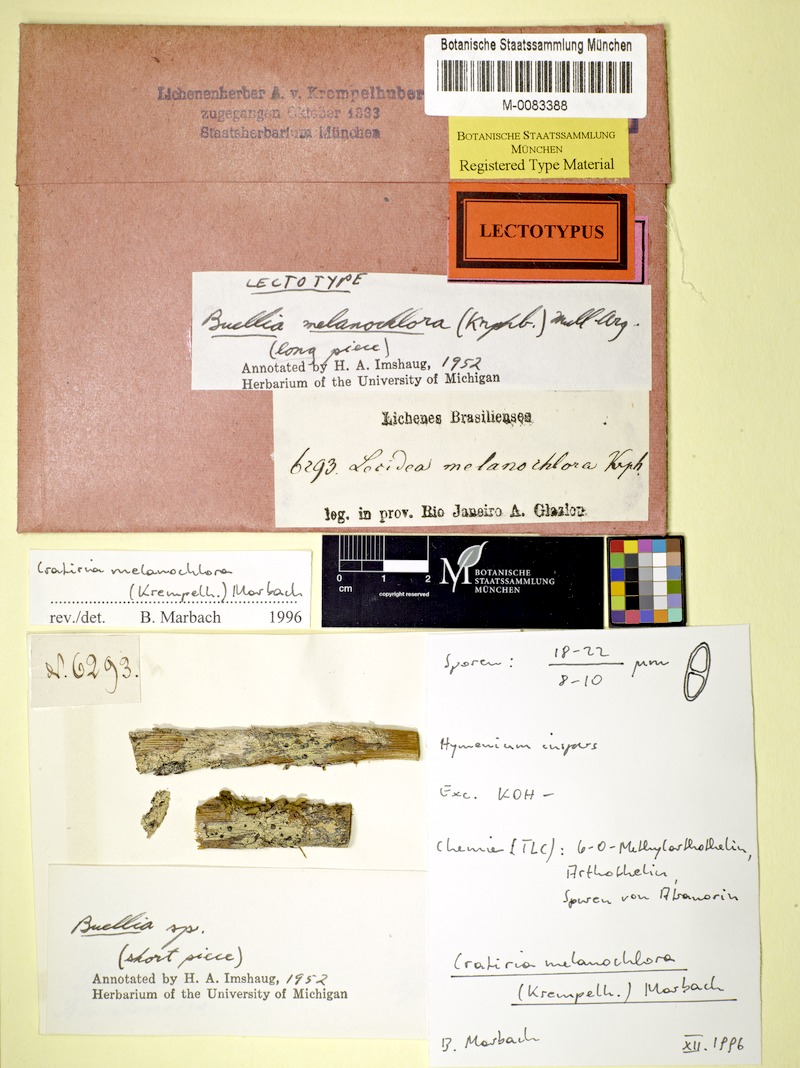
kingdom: Fungi
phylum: Ascomycota
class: Lecanoromycetes
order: Caliciales
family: Caliciaceae
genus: Cratiria
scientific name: Cratiria melanochlora
